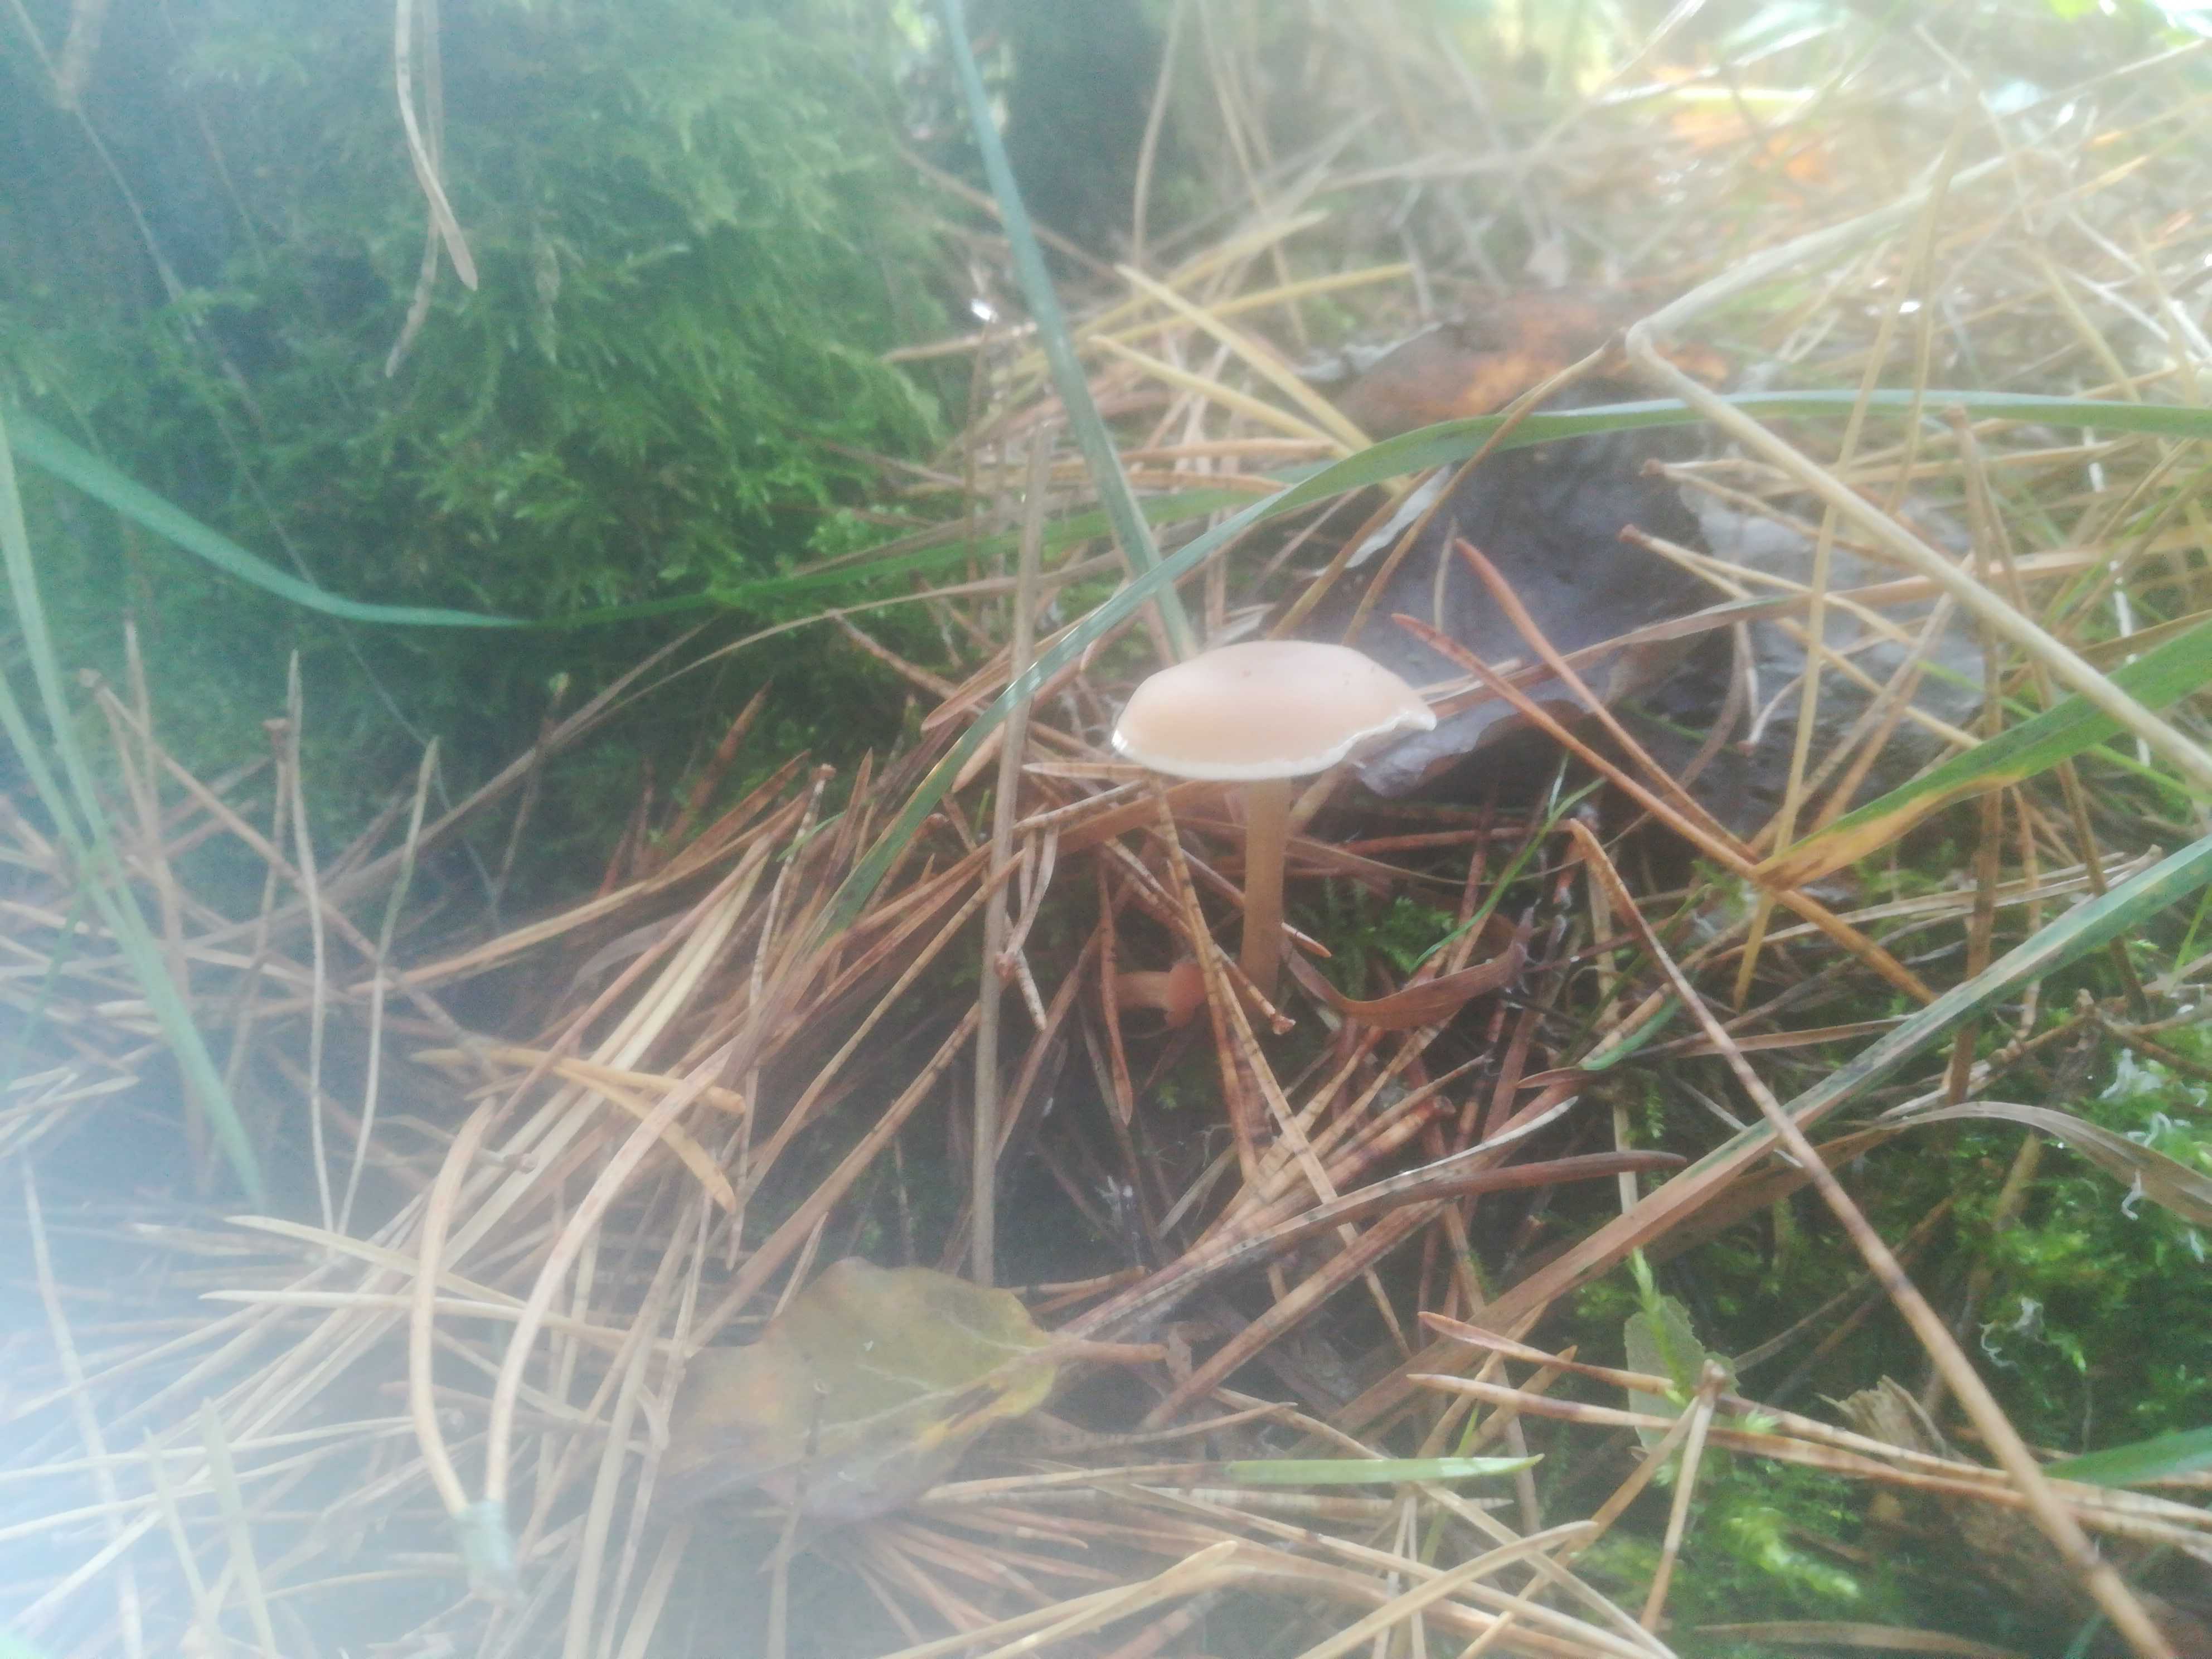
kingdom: Fungi
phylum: Basidiomycota
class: Agaricomycetes
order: Agaricales
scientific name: Agaricales
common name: champignonordenen
